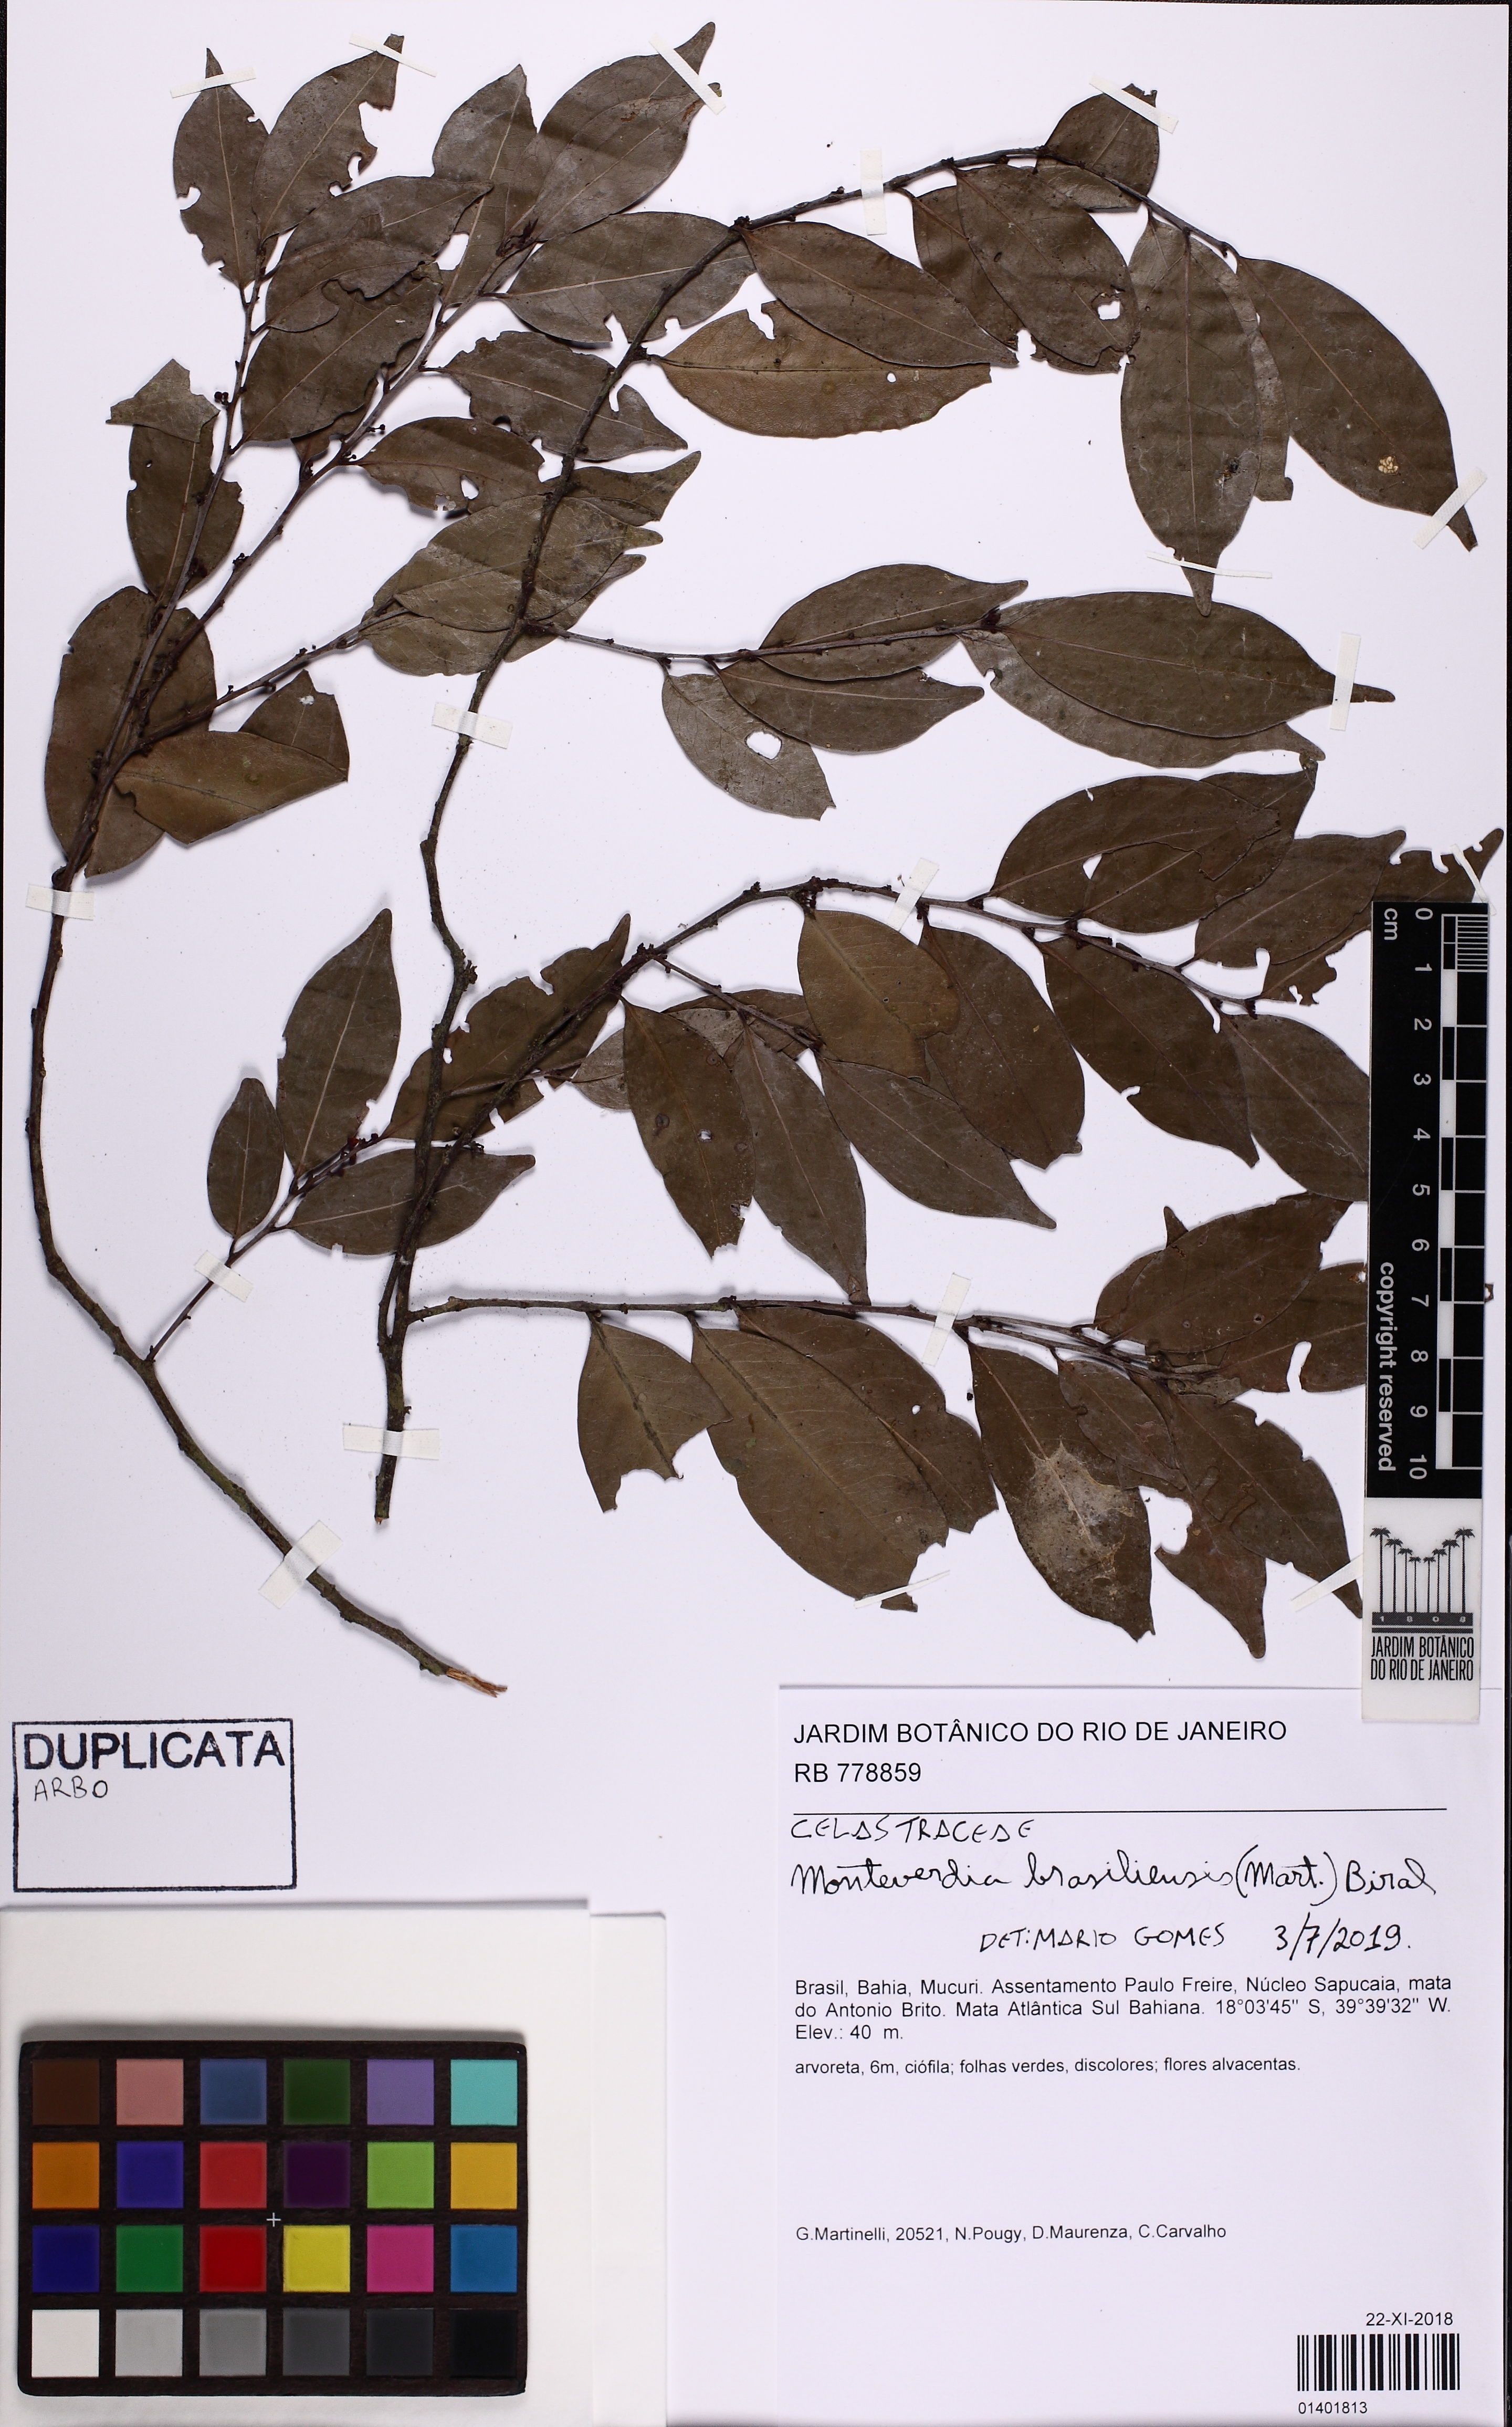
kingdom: Plantae
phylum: Tracheophyta
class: Magnoliopsida
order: Celastrales
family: Celastraceae
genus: Monteverdia
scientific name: Monteverdia brasiliensis
